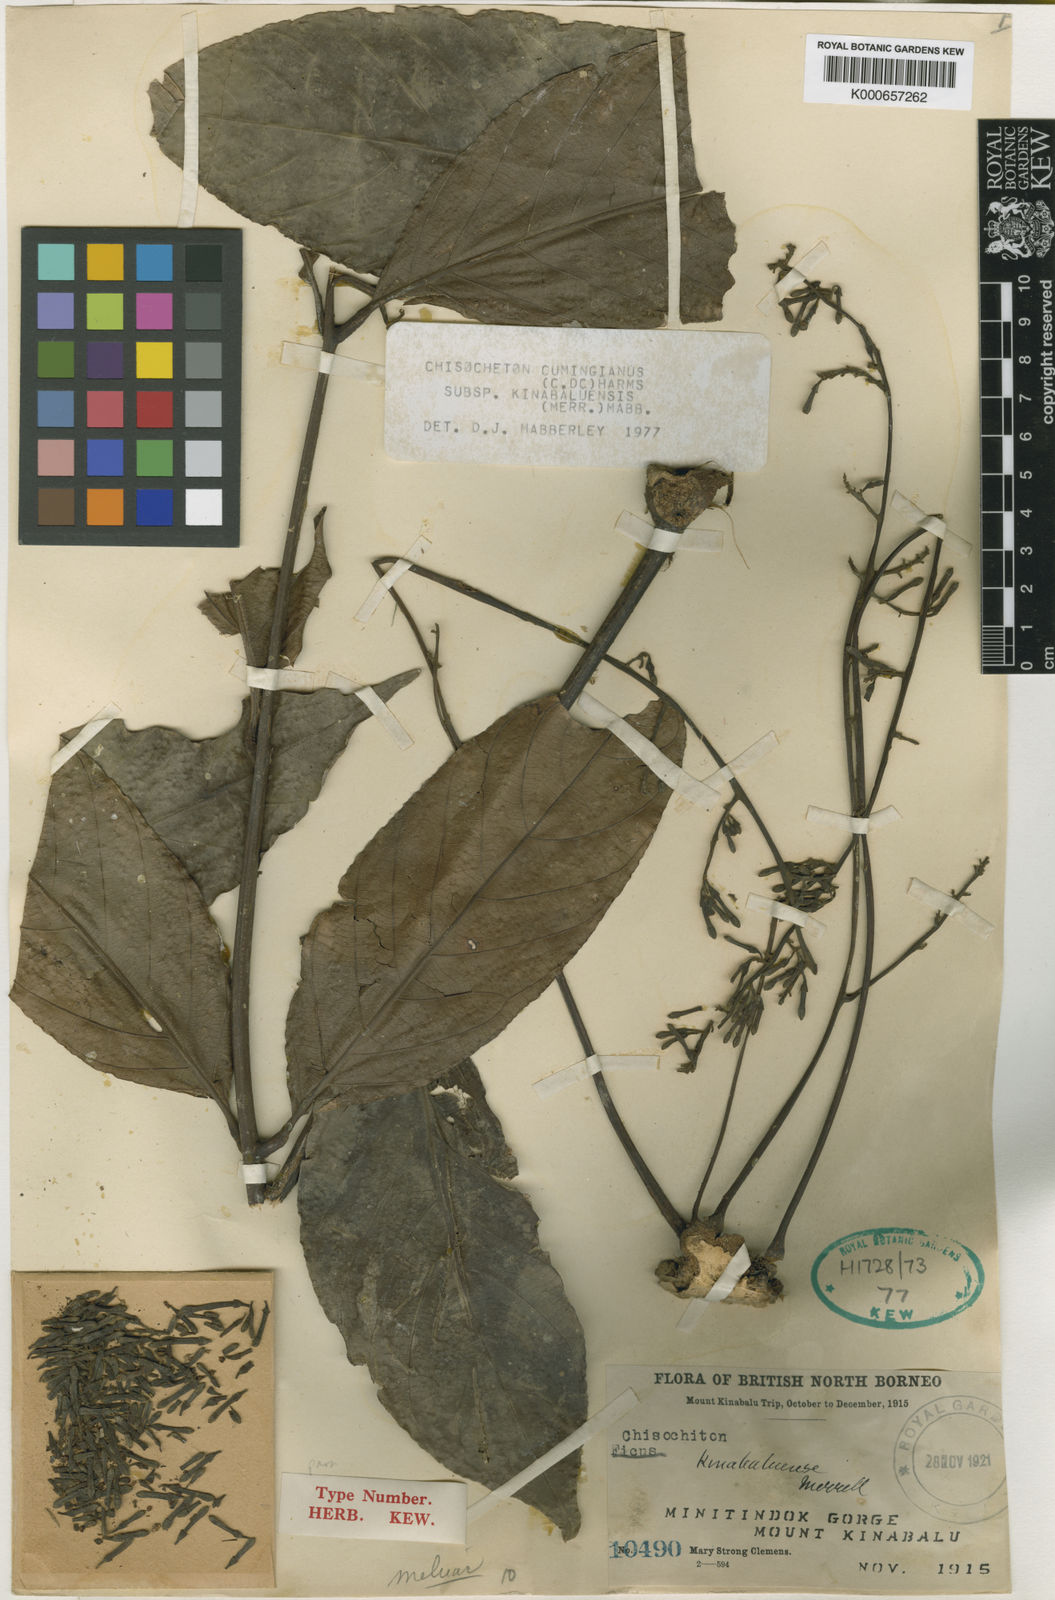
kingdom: Plantae
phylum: Tracheophyta
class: Magnoliopsida
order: Sapindales
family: Meliaceae
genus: Chisocheton
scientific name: Chisocheton cumingianus
